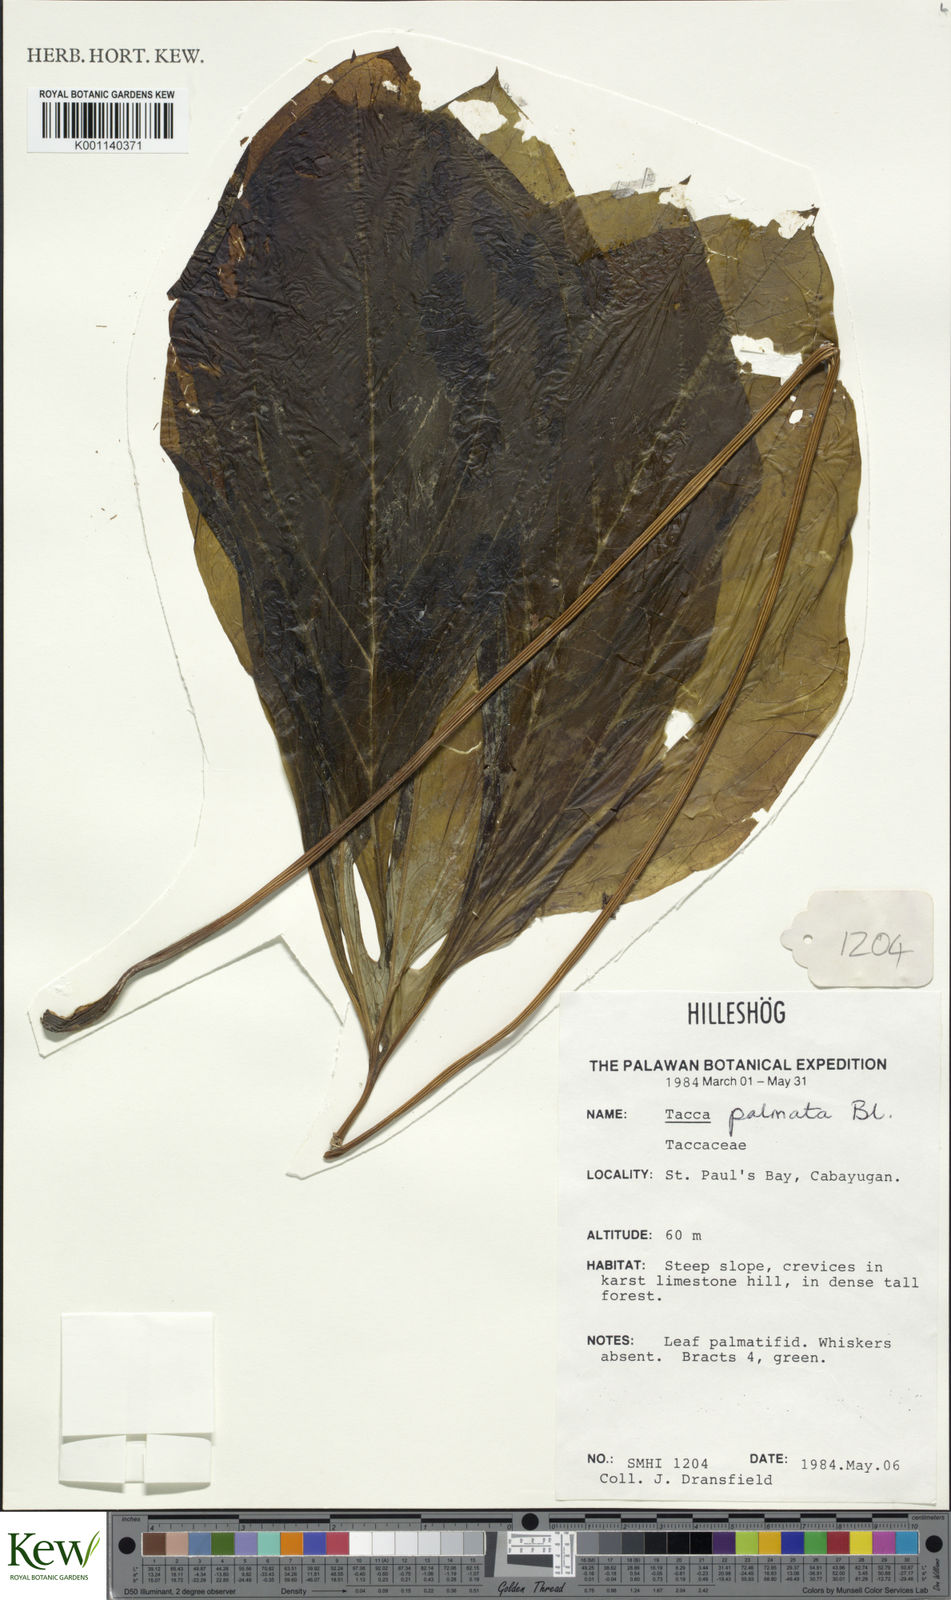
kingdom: Plantae
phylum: Tracheophyta
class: Liliopsida
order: Dioscoreales
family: Dioscoreaceae
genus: Tacca
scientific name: Tacca palmata
